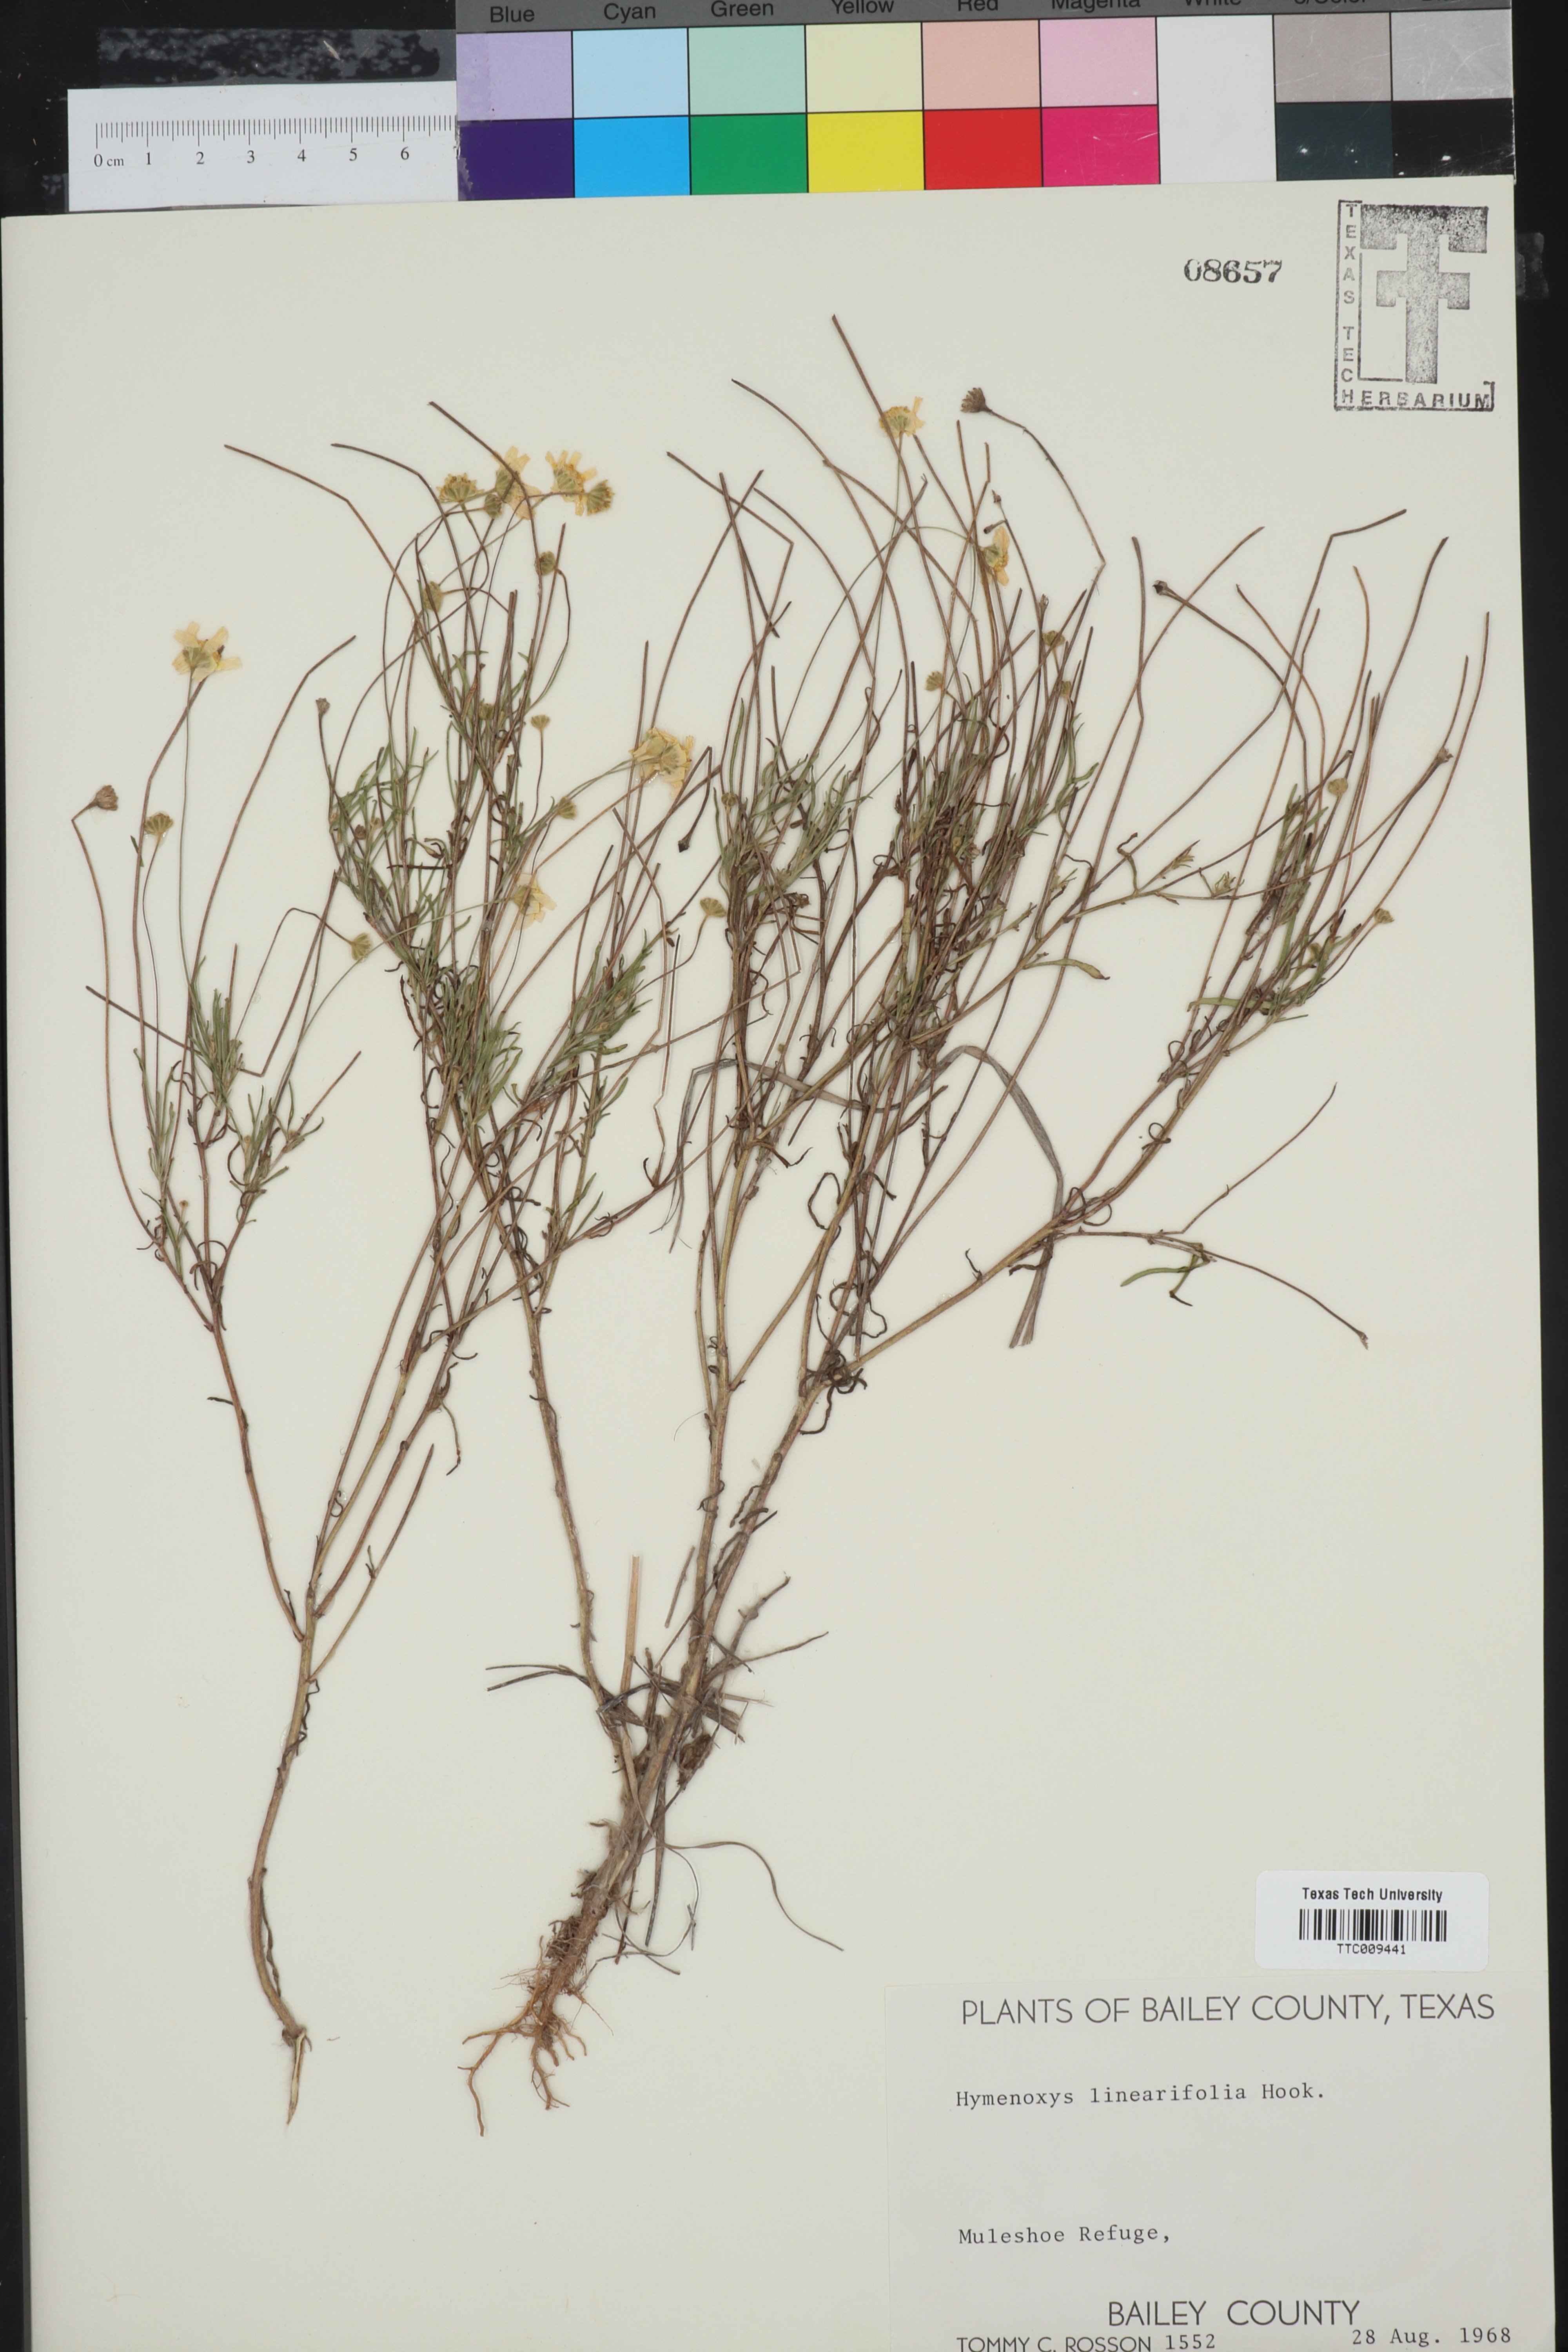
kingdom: Plantae
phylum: Tracheophyta
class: Magnoliopsida
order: Asterales
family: Asteraceae
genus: Tetraneuris
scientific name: Tetraneuris linearifolia
